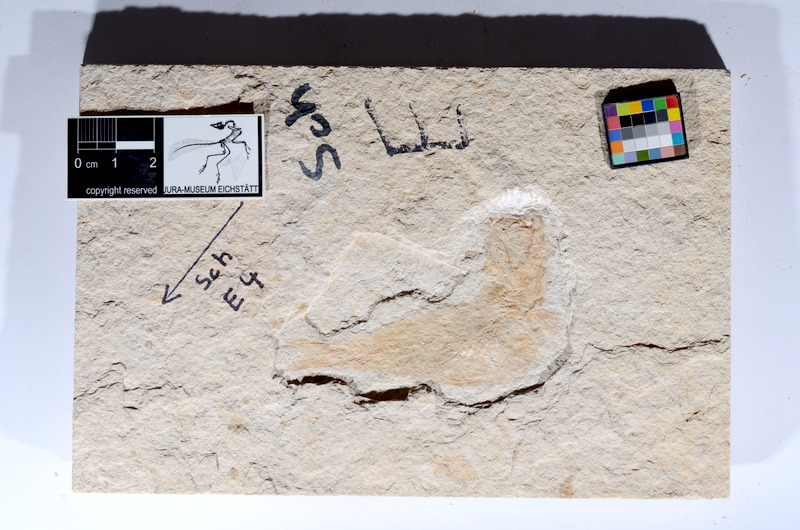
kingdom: Animalia
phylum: Chordata
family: Ascalaboidae
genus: Tharsis
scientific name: Tharsis dubius
